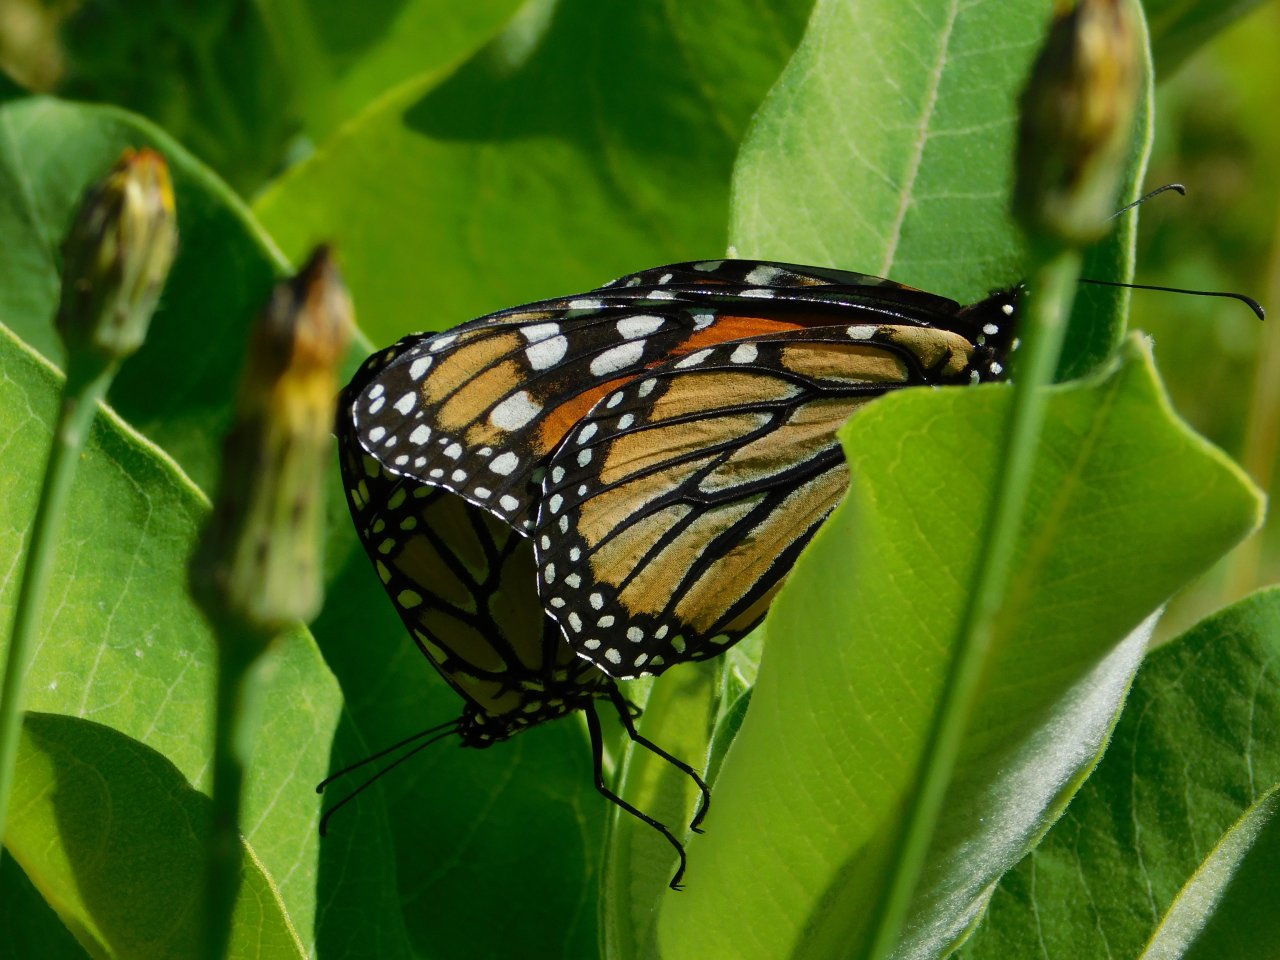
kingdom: Animalia
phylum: Arthropoda
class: Insecta
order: Lepidoptera
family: Nymphalidae
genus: Danaus
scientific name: Danaus plexippus
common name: Monarch
